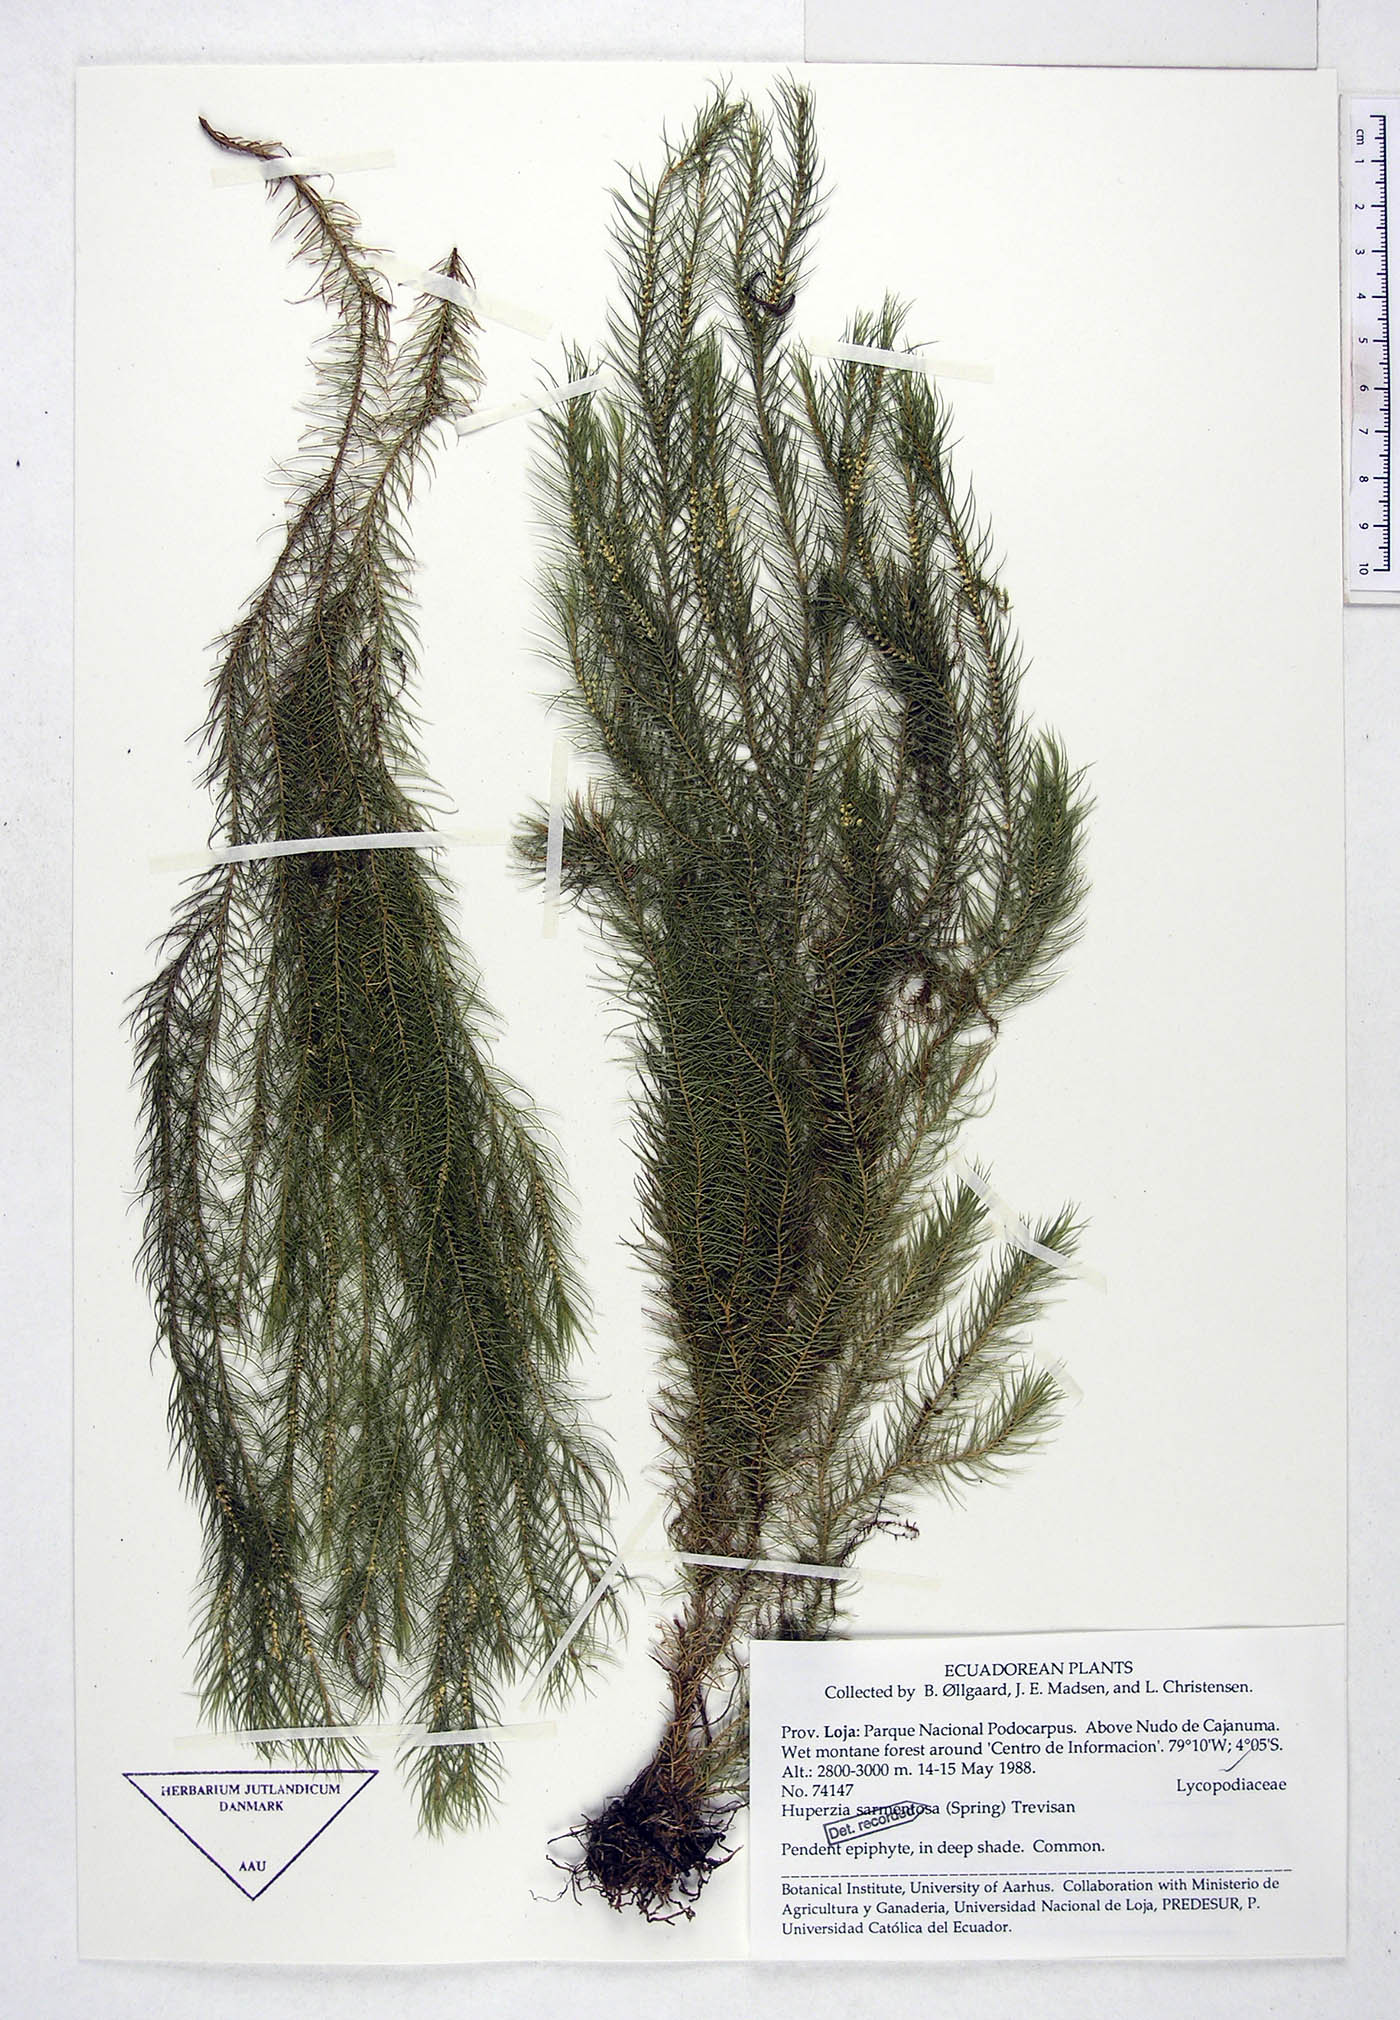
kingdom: Plantae
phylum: Tracheophyta
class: Lycopodiopsida
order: Lycopodiales
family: Lycopodiaceae
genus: Phlegmariurus
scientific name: Phlegmariurus sarmentosus
